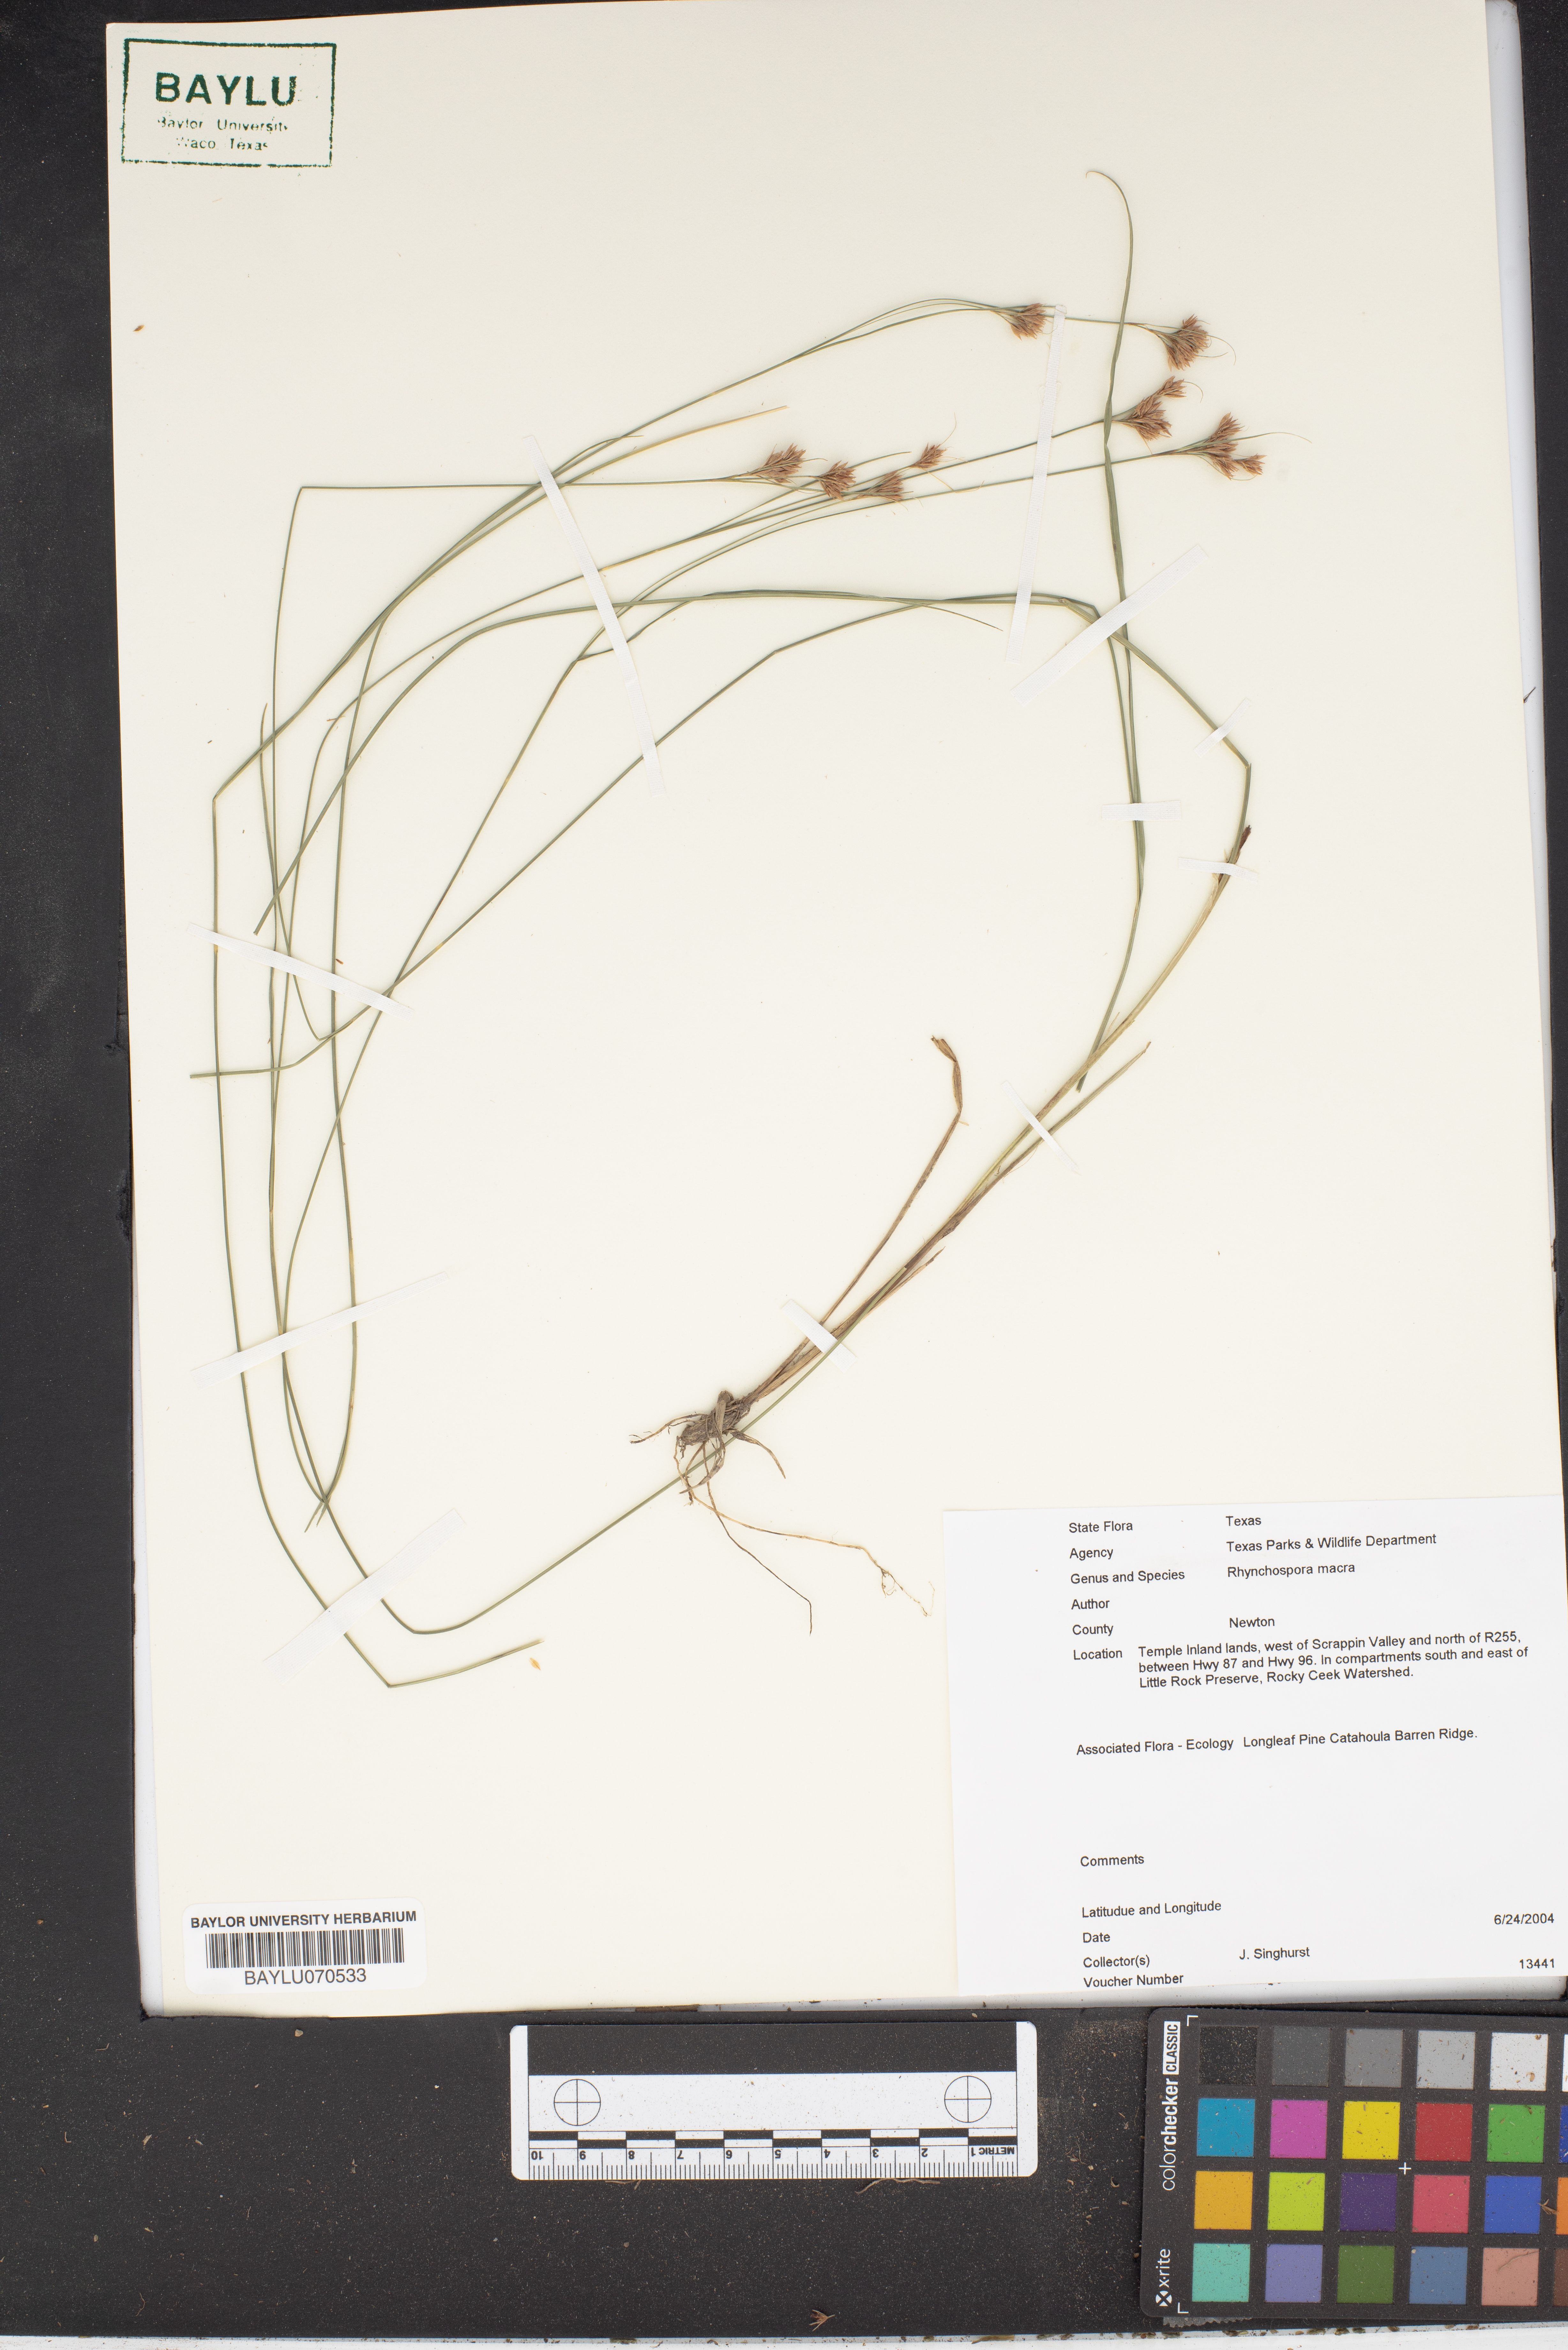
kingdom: Plantae
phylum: Tracheophyta
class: Liliopsida
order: Poales
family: Cyperaceae
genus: Rhynchospora
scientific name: Rhynchospora macra
